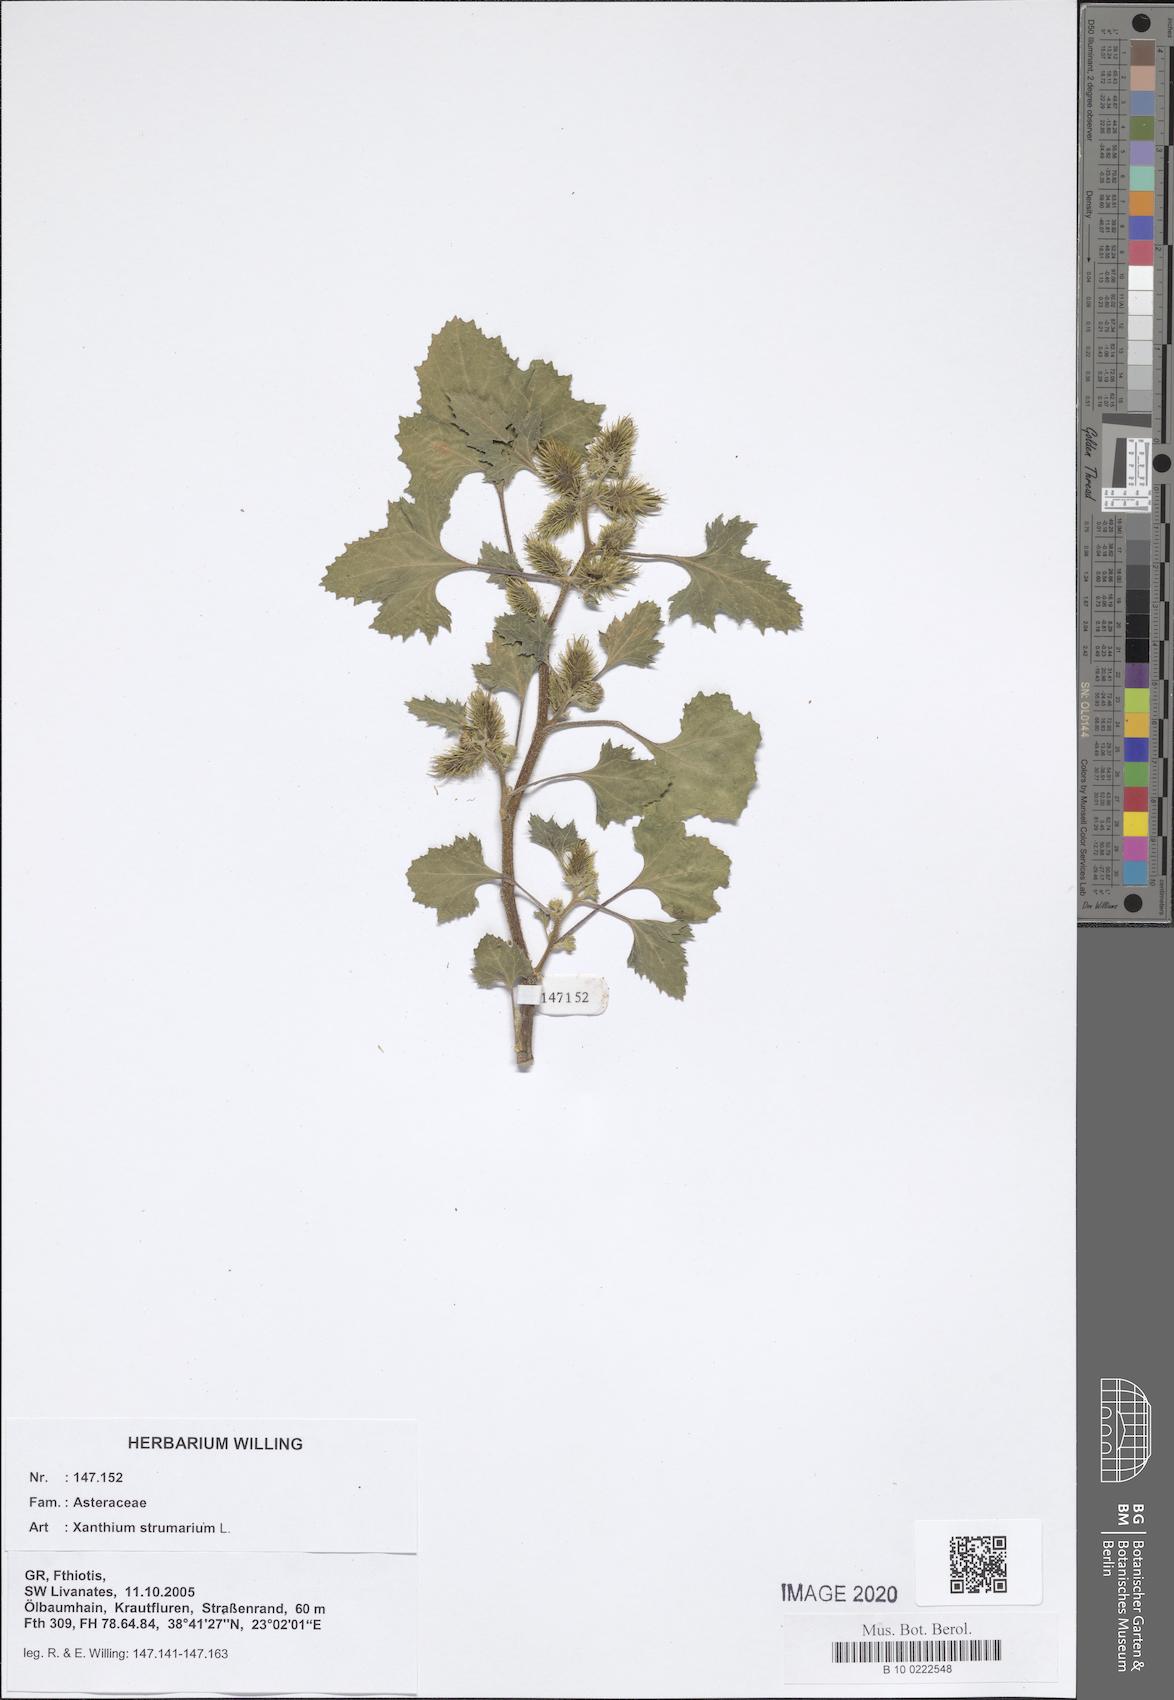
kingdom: Plantae
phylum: Tracheophyta
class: Magnoliopsida
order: Asterales
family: Asteraceae
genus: Xanthium
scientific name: Xanthium strumarium
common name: Rough cocklebur
